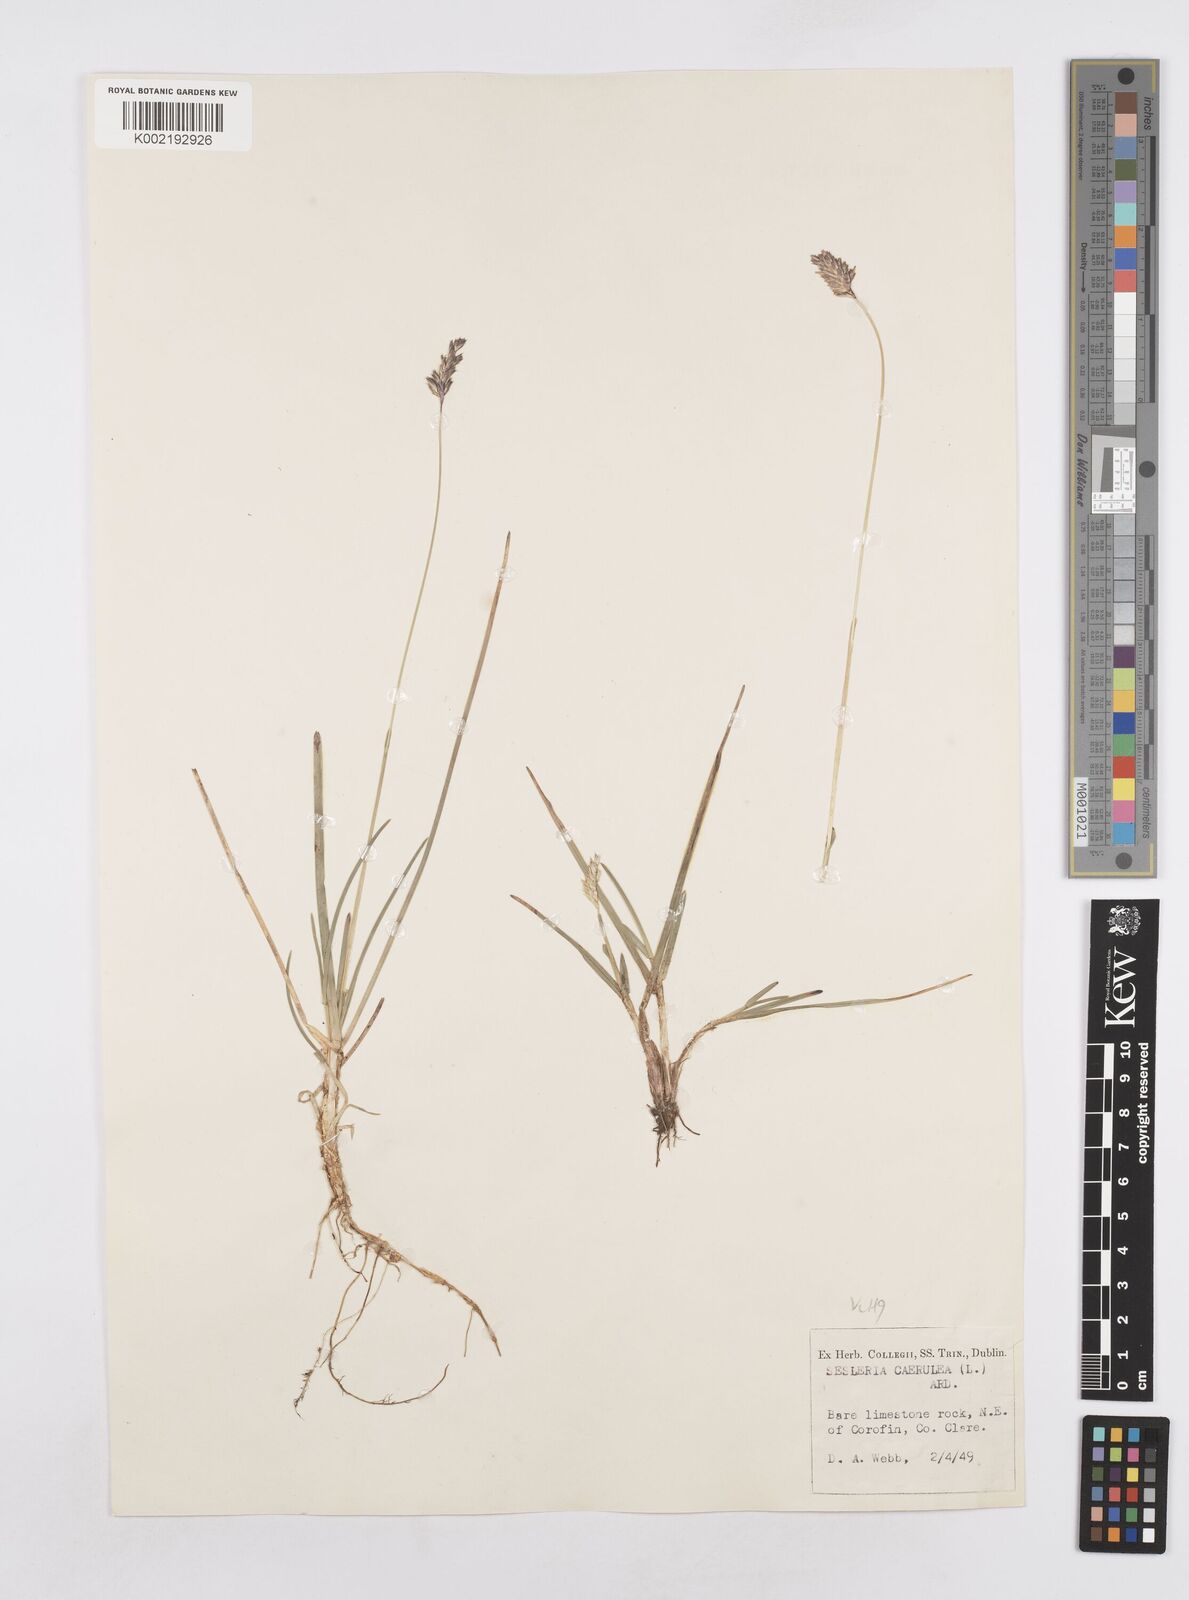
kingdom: Plantae
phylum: Tracheophyta
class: Liliopsida
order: Poales
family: Poaceae
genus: Sesleria
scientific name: Sesleria caerulea
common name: Blue moor-grass
